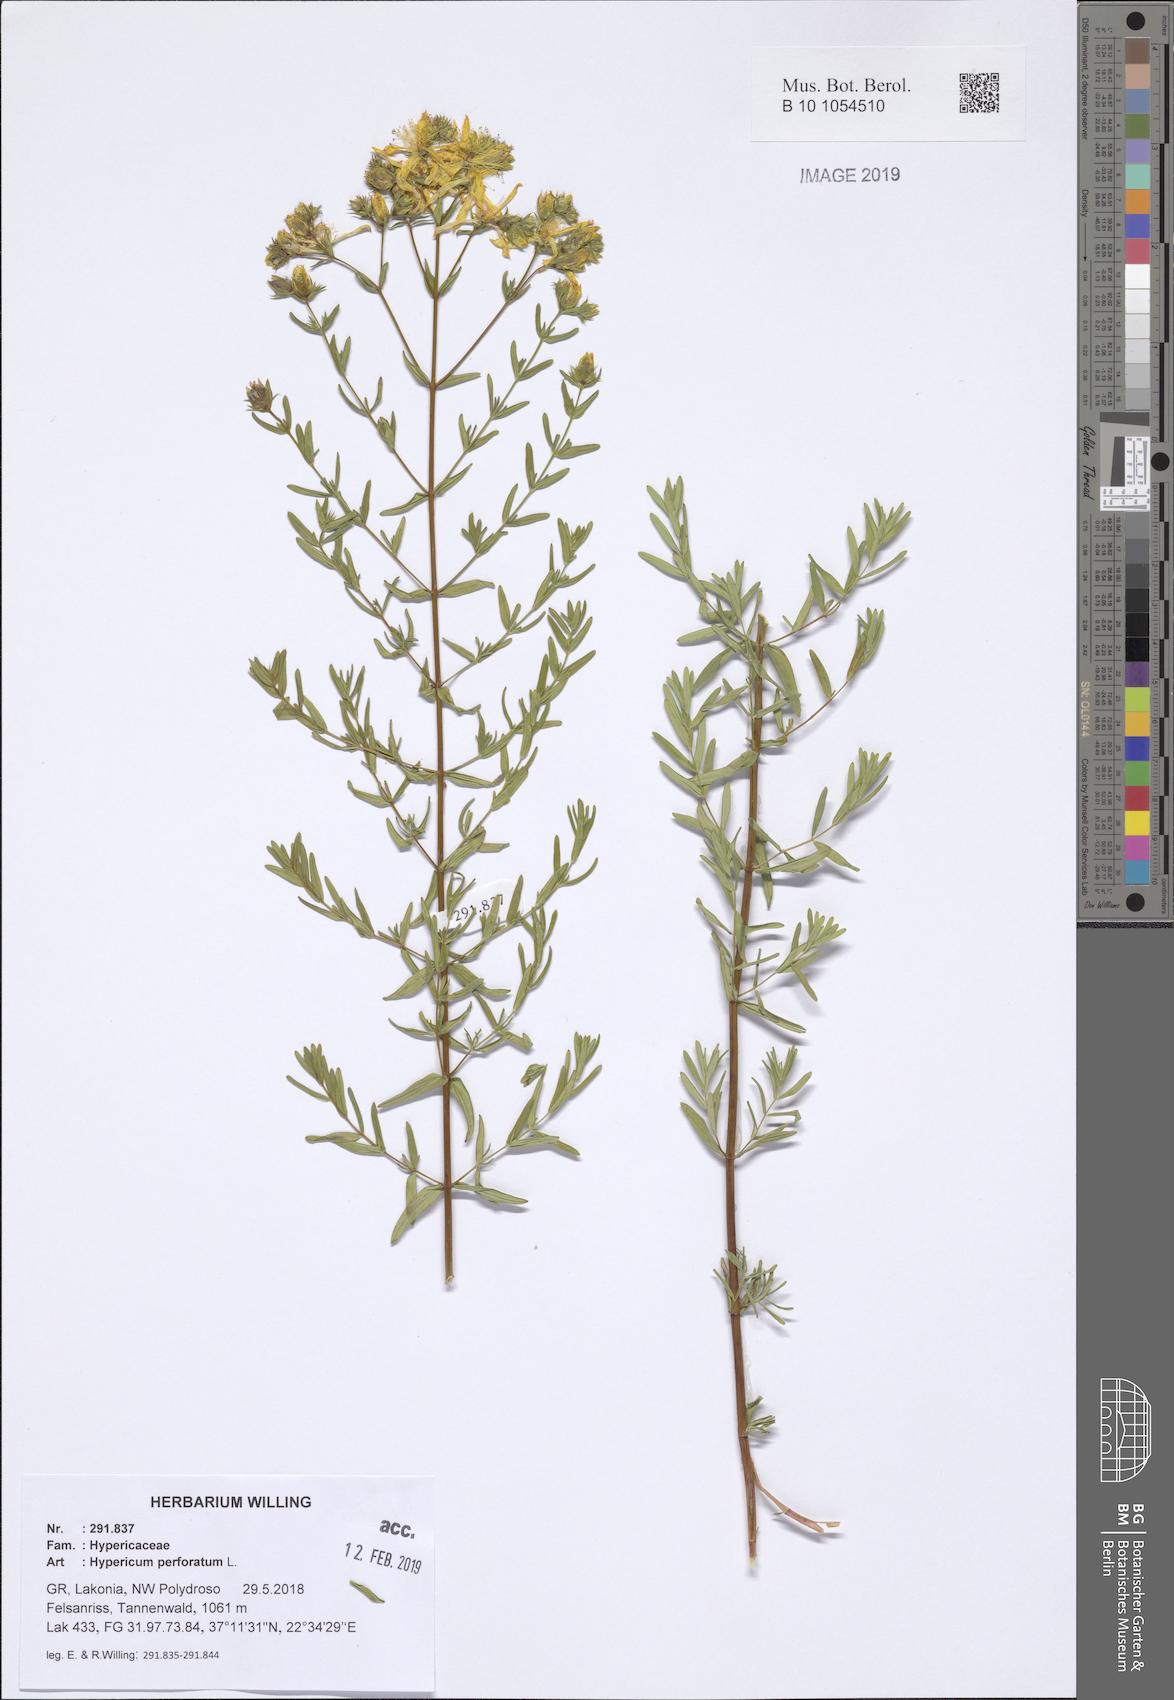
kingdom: Plantae
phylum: Tracheophyta
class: Magnoliopsida
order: Malpighiales
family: Hypericaceae
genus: Hypericum
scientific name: Hypericum perforatum
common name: Common st. johnswort
